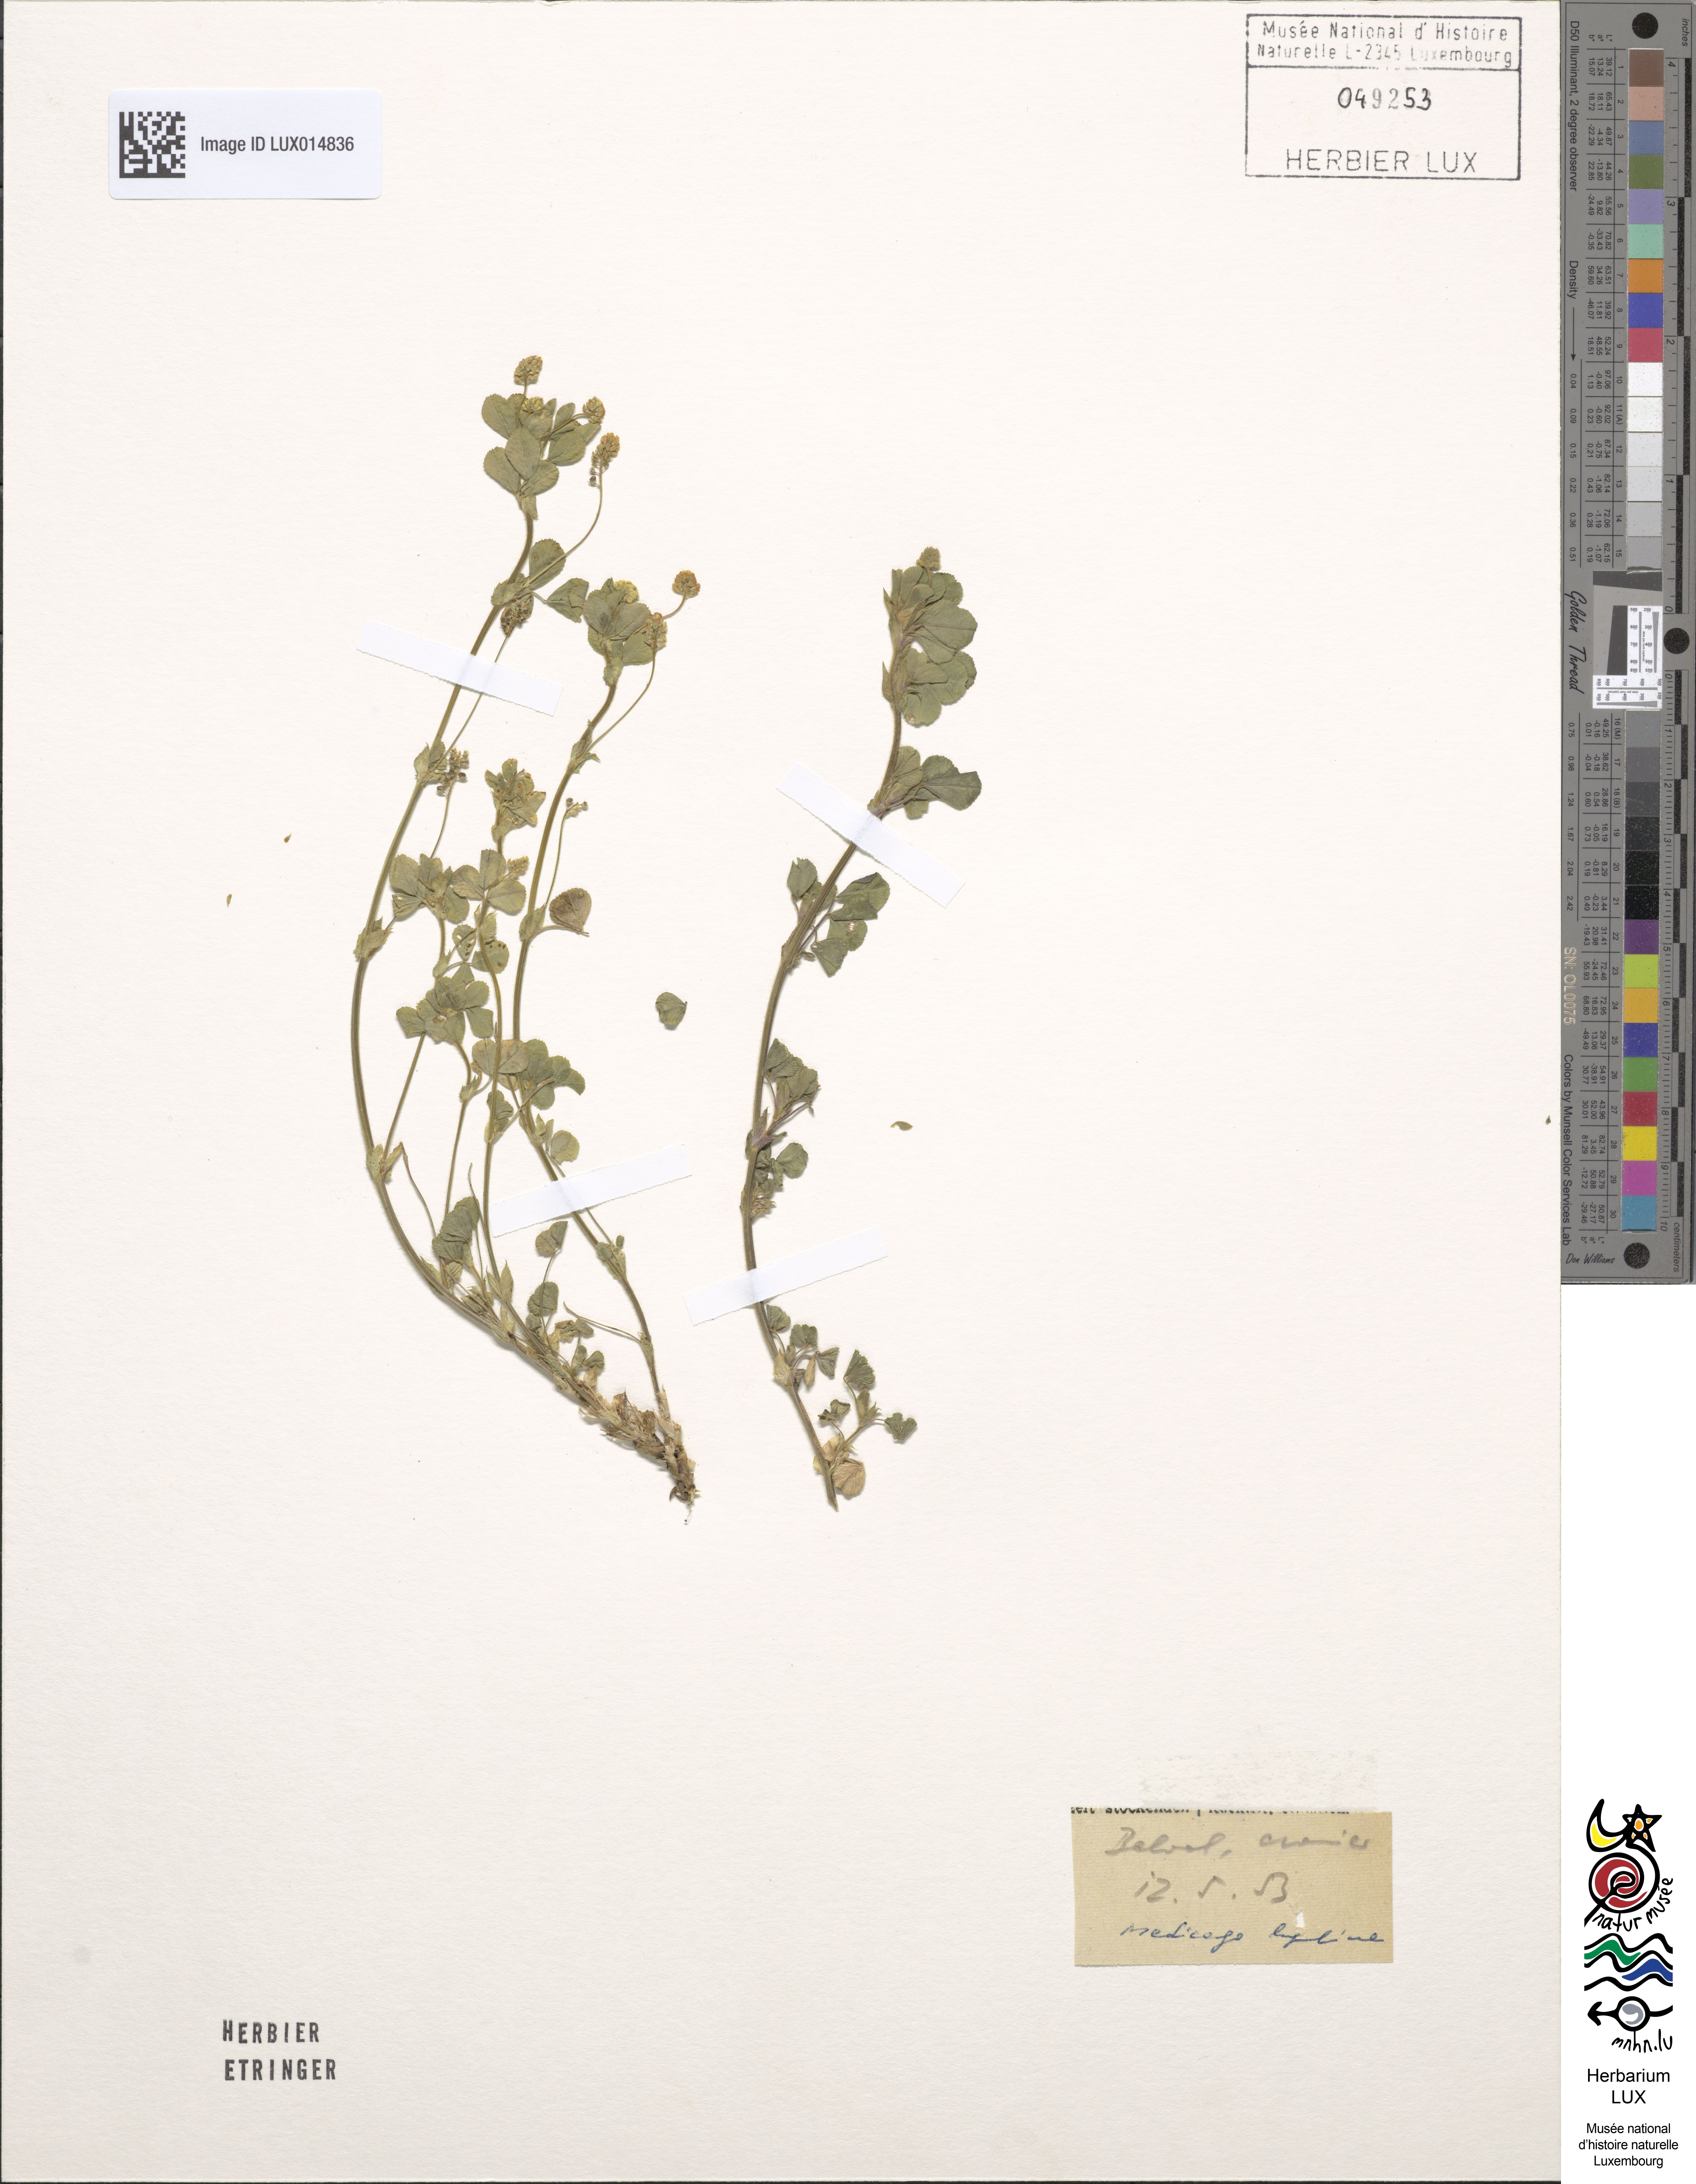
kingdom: Plantae
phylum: Tracheophyta
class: Magnoliopsida
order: Fabales
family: Fabaceae
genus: Medicago
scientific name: Medicago lupulina
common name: Black medick
